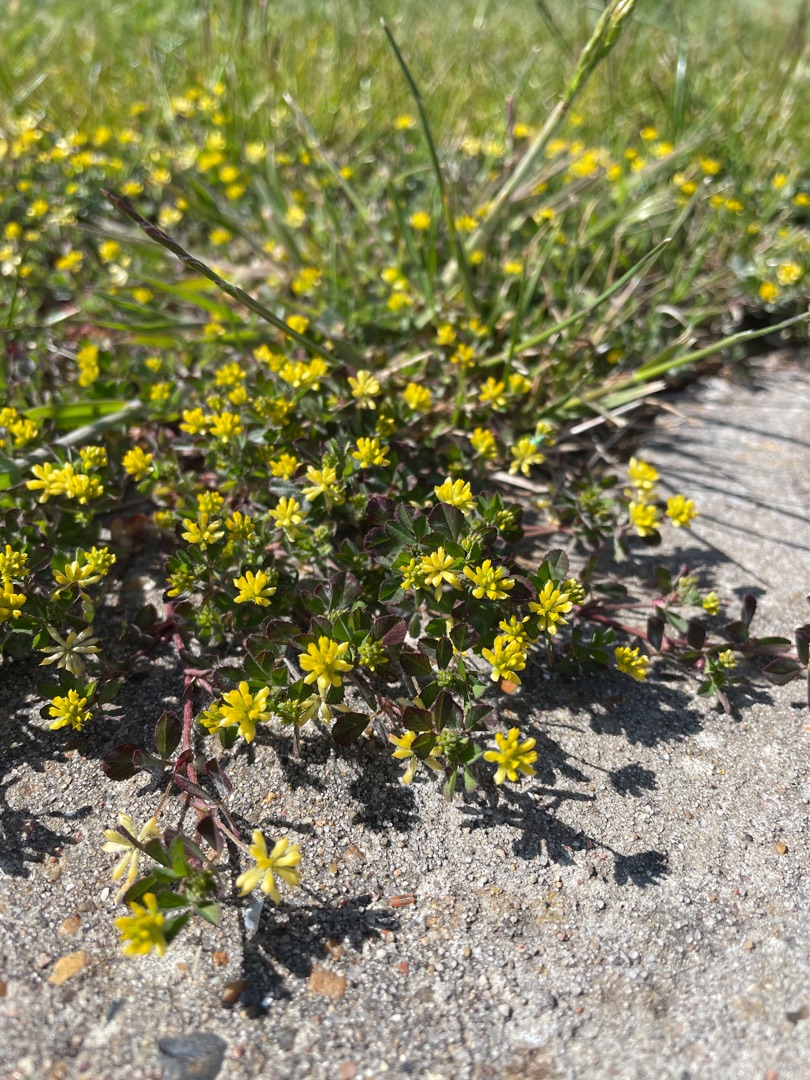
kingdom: Plantae
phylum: Tracheophyta
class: Magnoliopsida
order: Fabales
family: Fabaceae
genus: Trifolium
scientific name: Trifolium dubium
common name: Fin kløver
